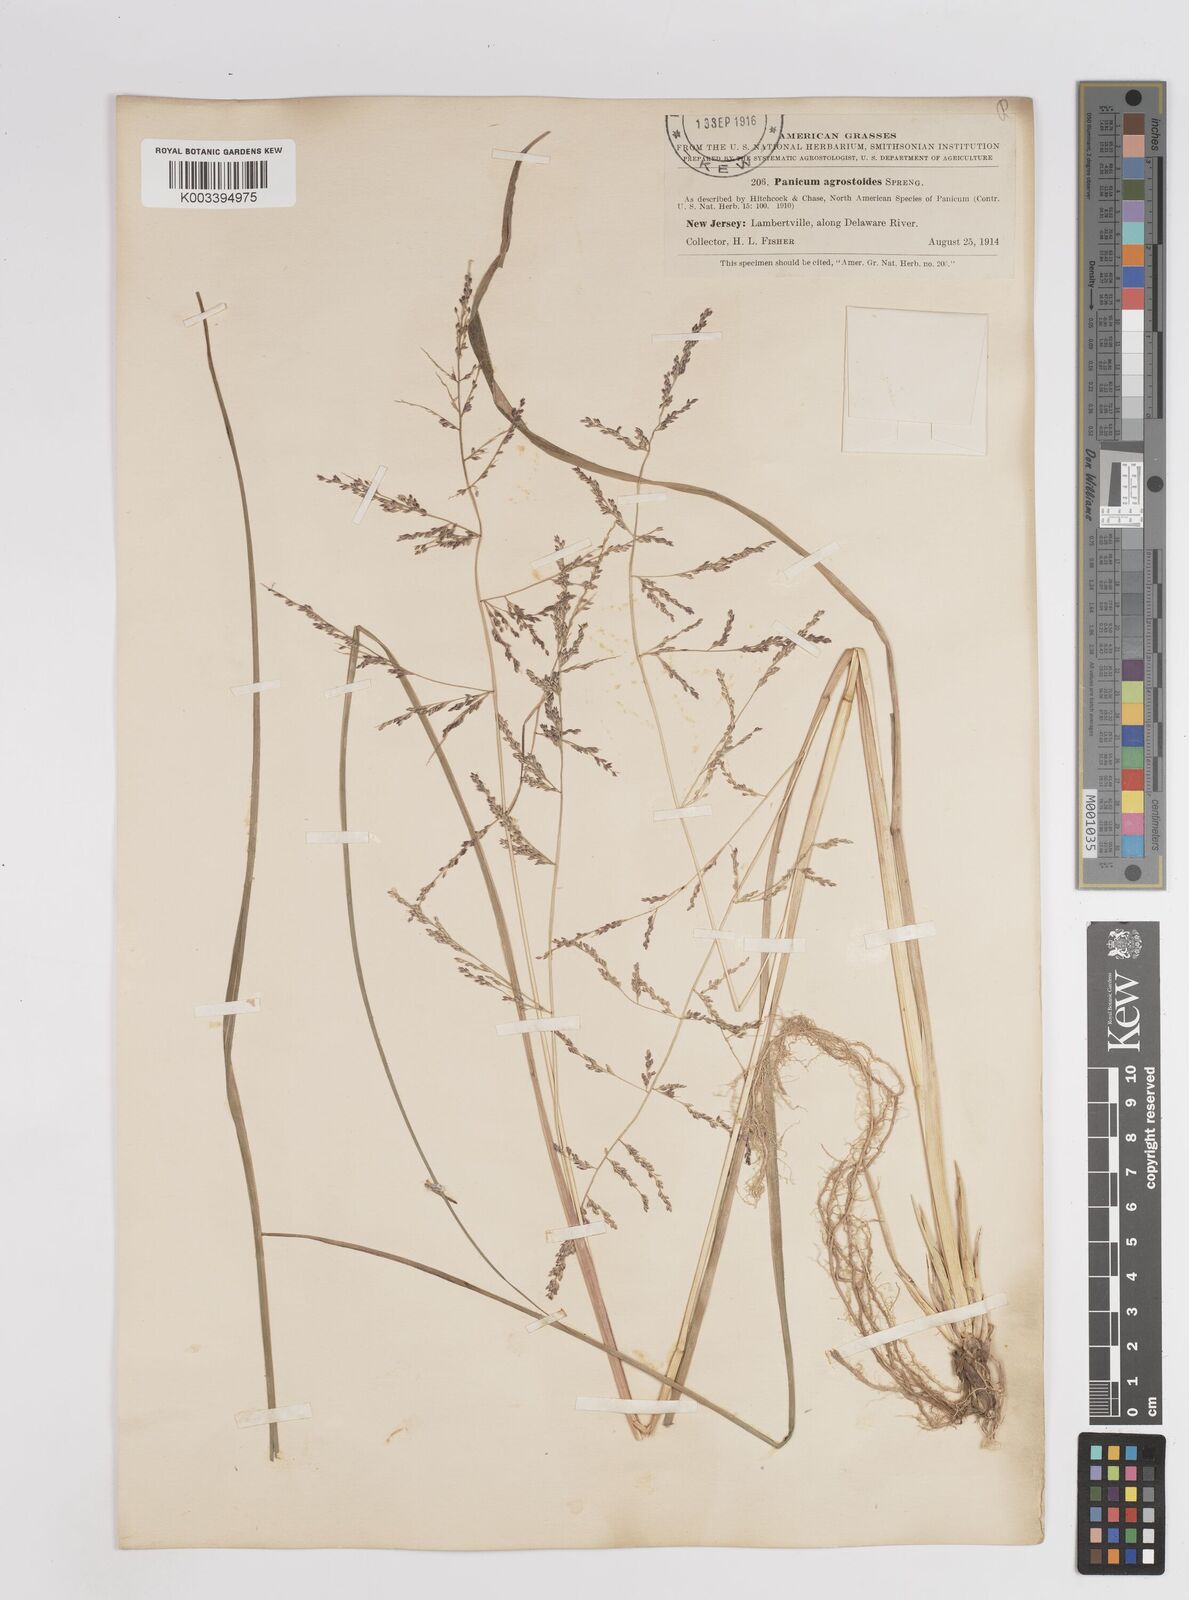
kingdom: Plantae
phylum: Tracheophyta
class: Liliopsida
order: Poales
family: Poaceae
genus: Steinchisma
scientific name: Steinchisma laxum
